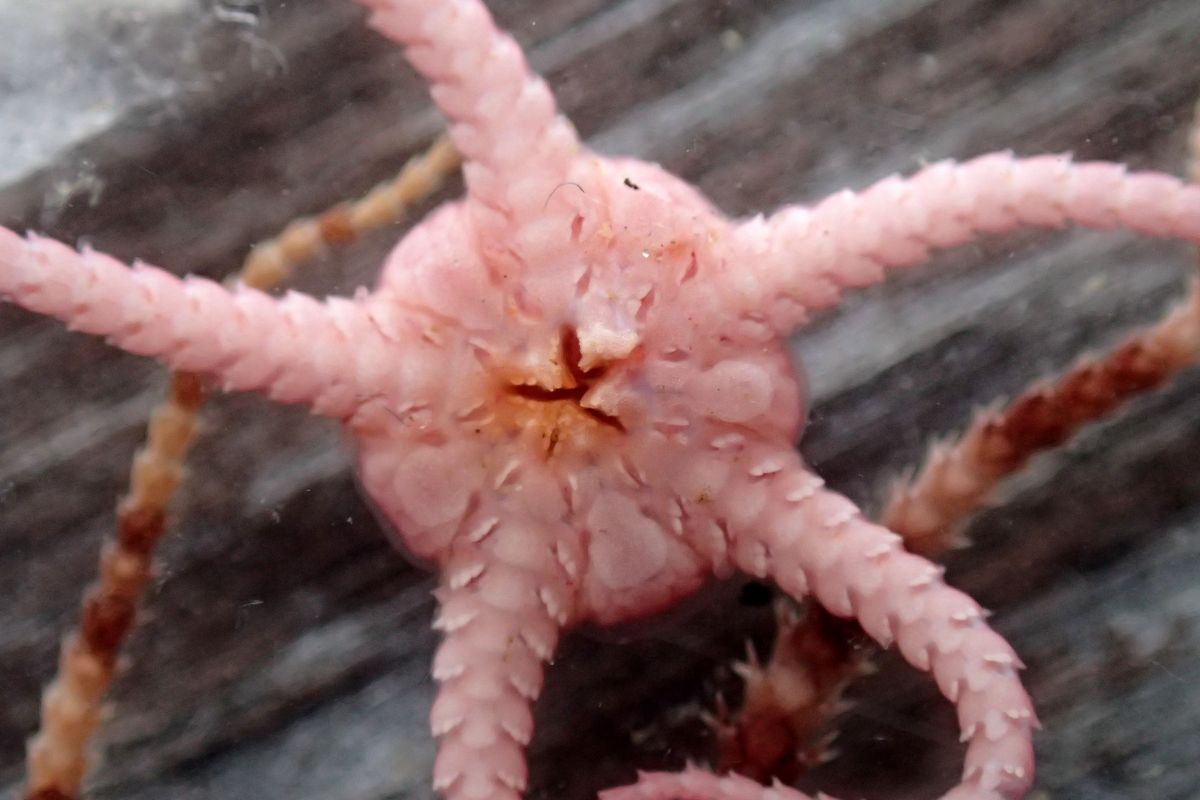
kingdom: Animalia
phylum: Echinodermata
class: Ophiuroidea
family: Ophiopyrgidae
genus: Stegophiura
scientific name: Stegophiura nodosa
